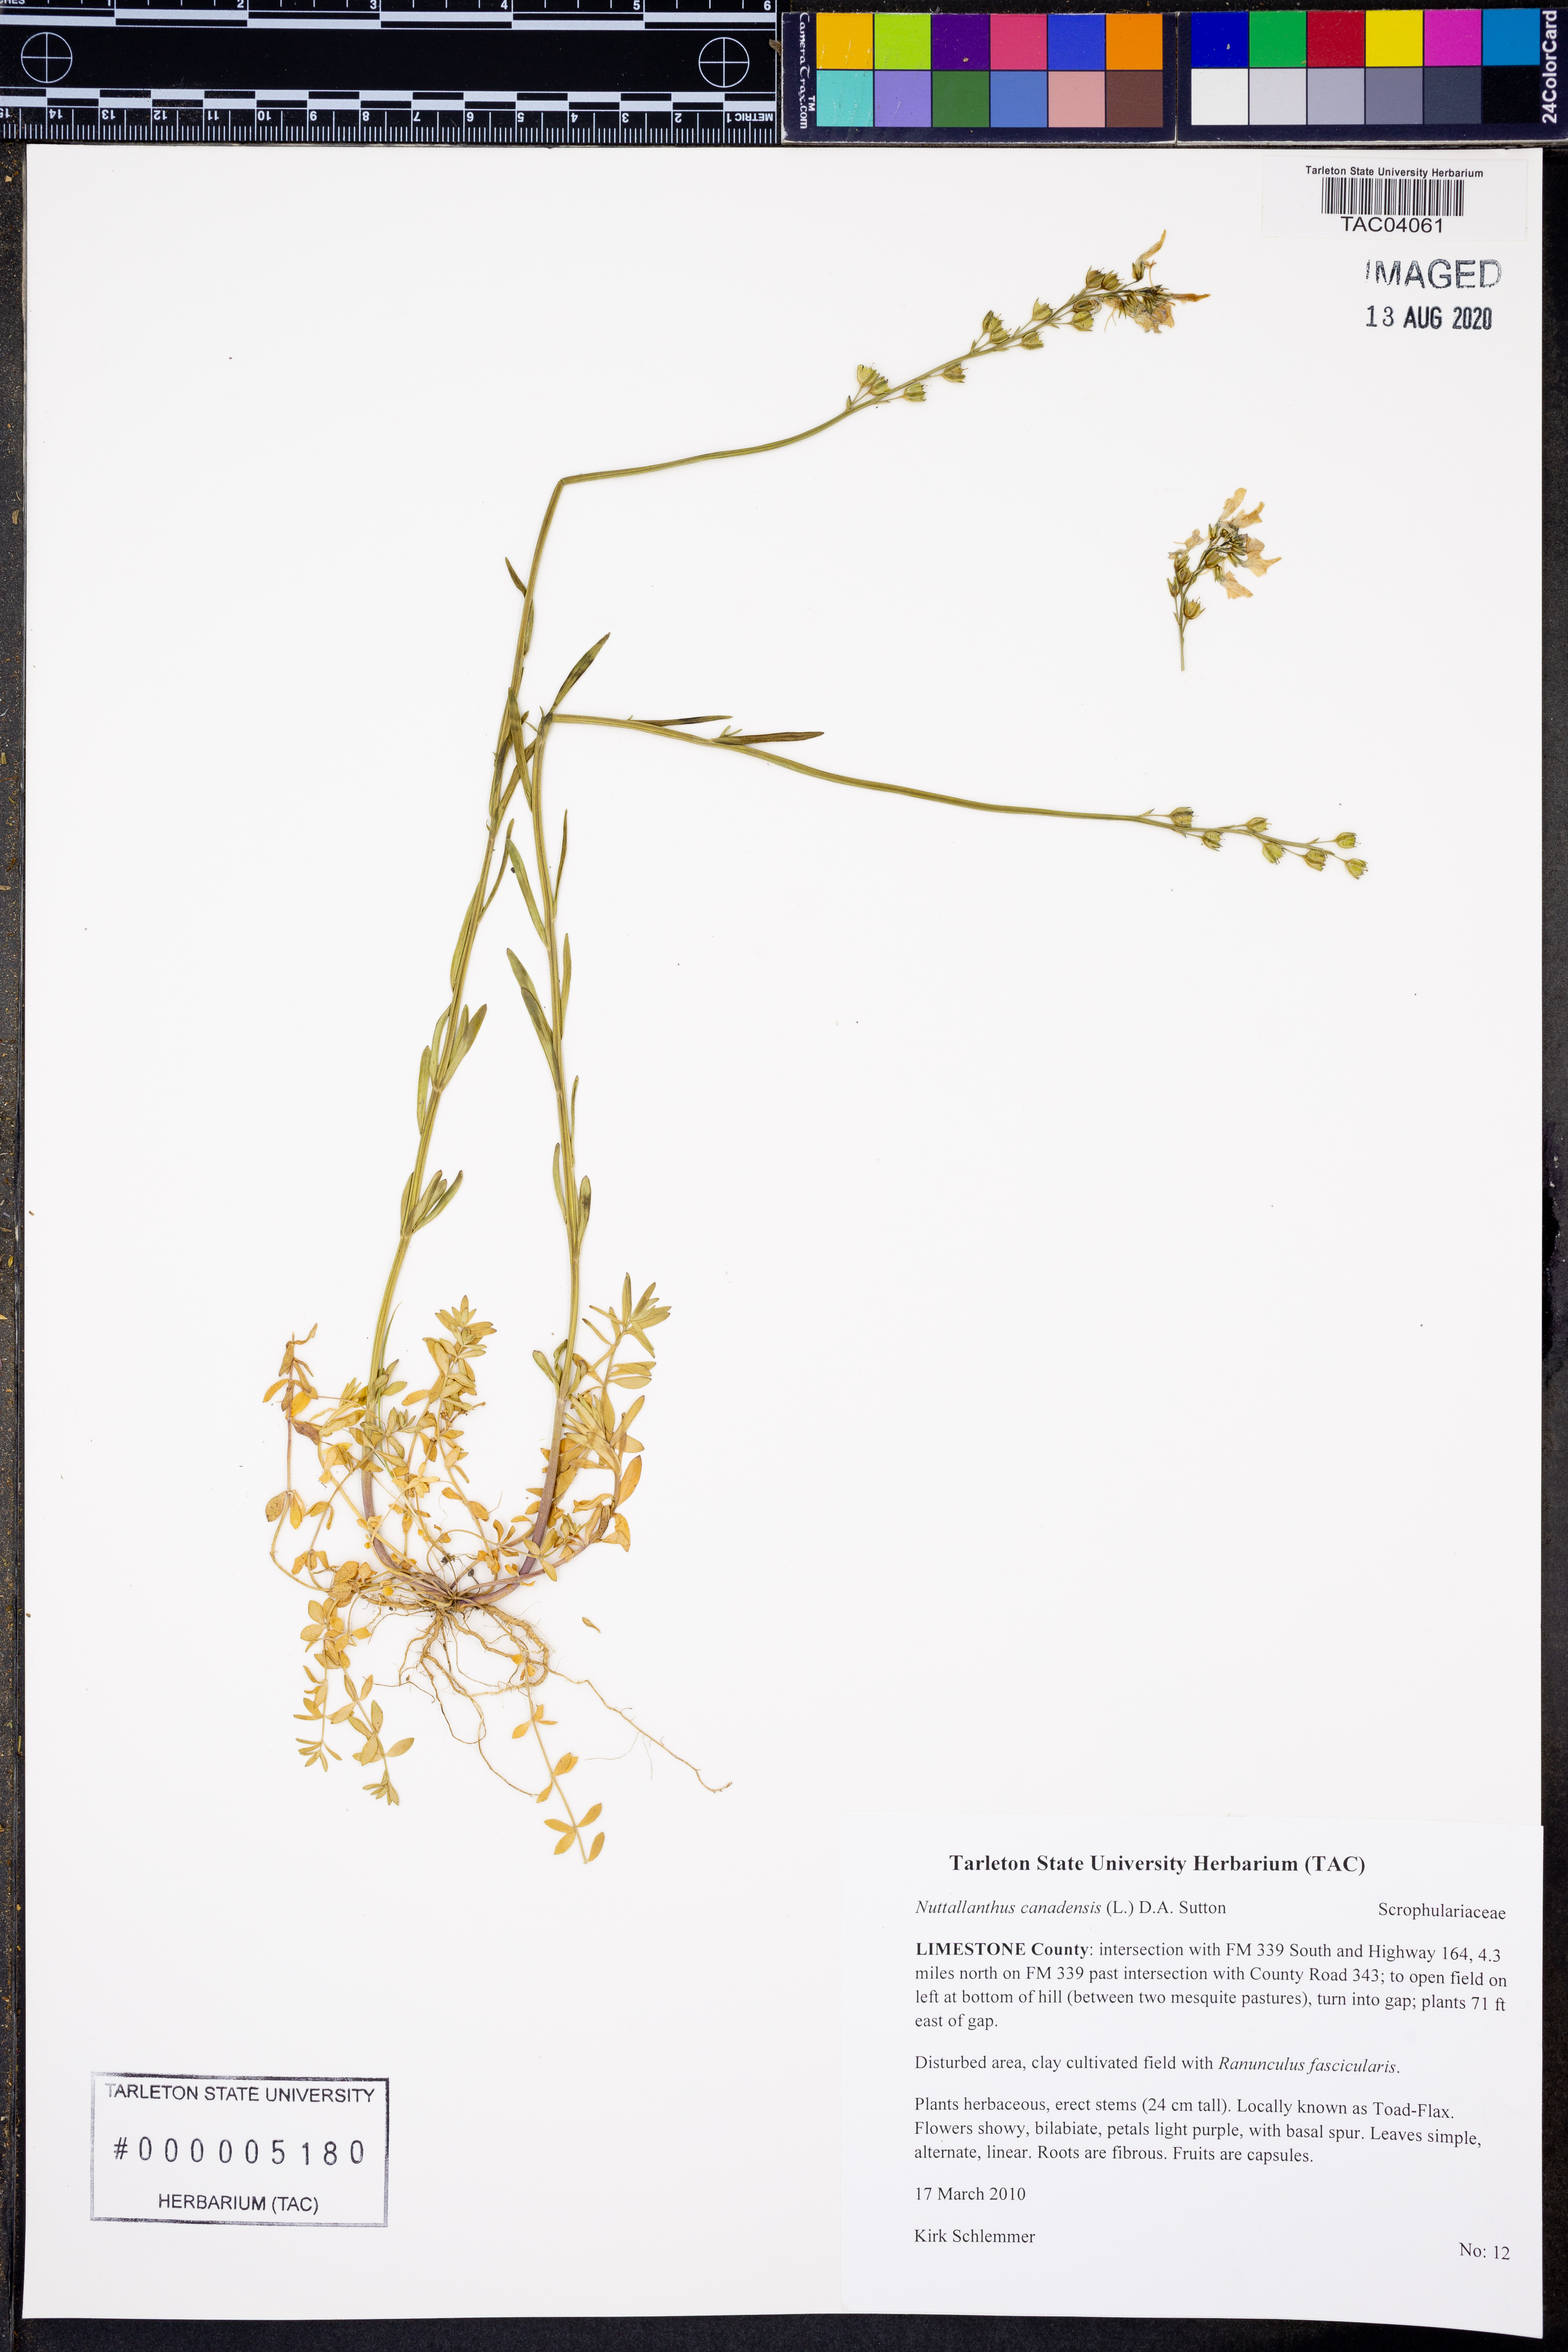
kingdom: Plantae
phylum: Tracheophyta
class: Magnoliopsida
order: Lamiales
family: Plantaginaceae
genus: Nuttallanthus
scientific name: Nuttallanthus canadensis
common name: Blue toadflax
